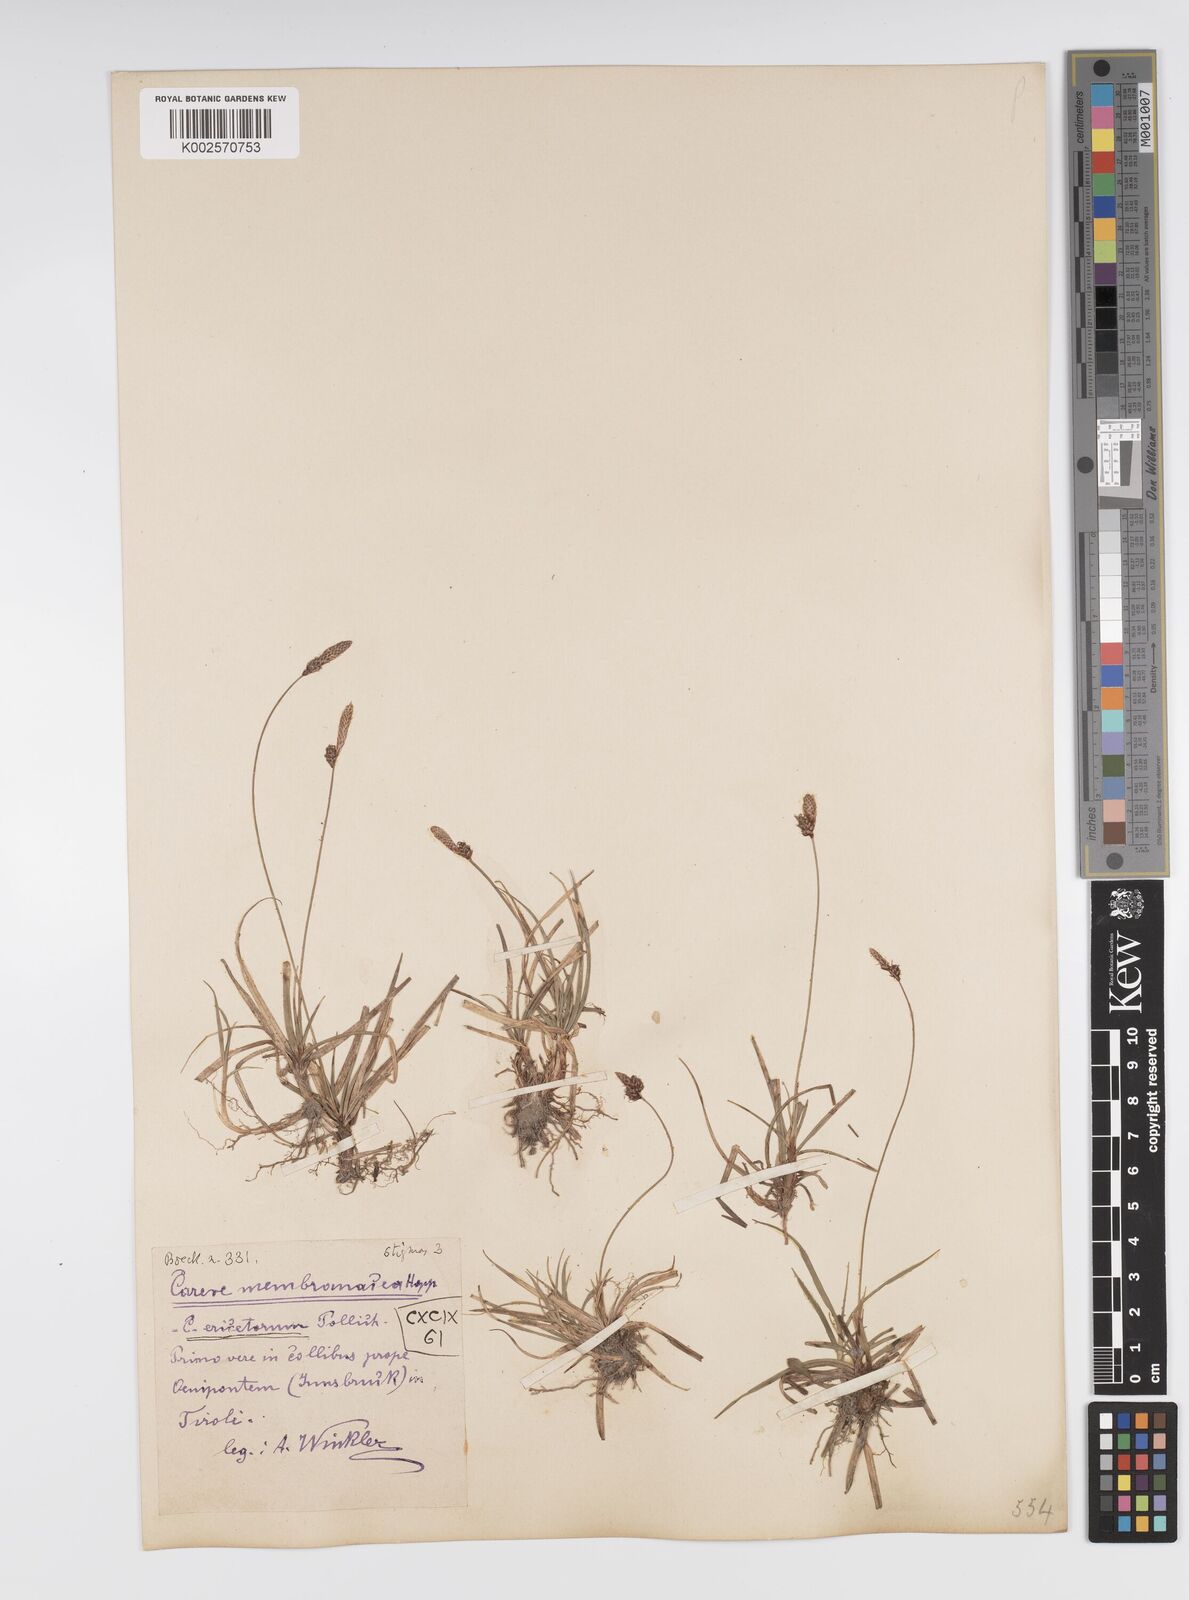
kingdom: Plantae
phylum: Tracheophyta
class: Liliopsida
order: Poales
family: Cyperaceae
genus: Carex
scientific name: Carex ericetorum
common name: Rare spring-sedge
